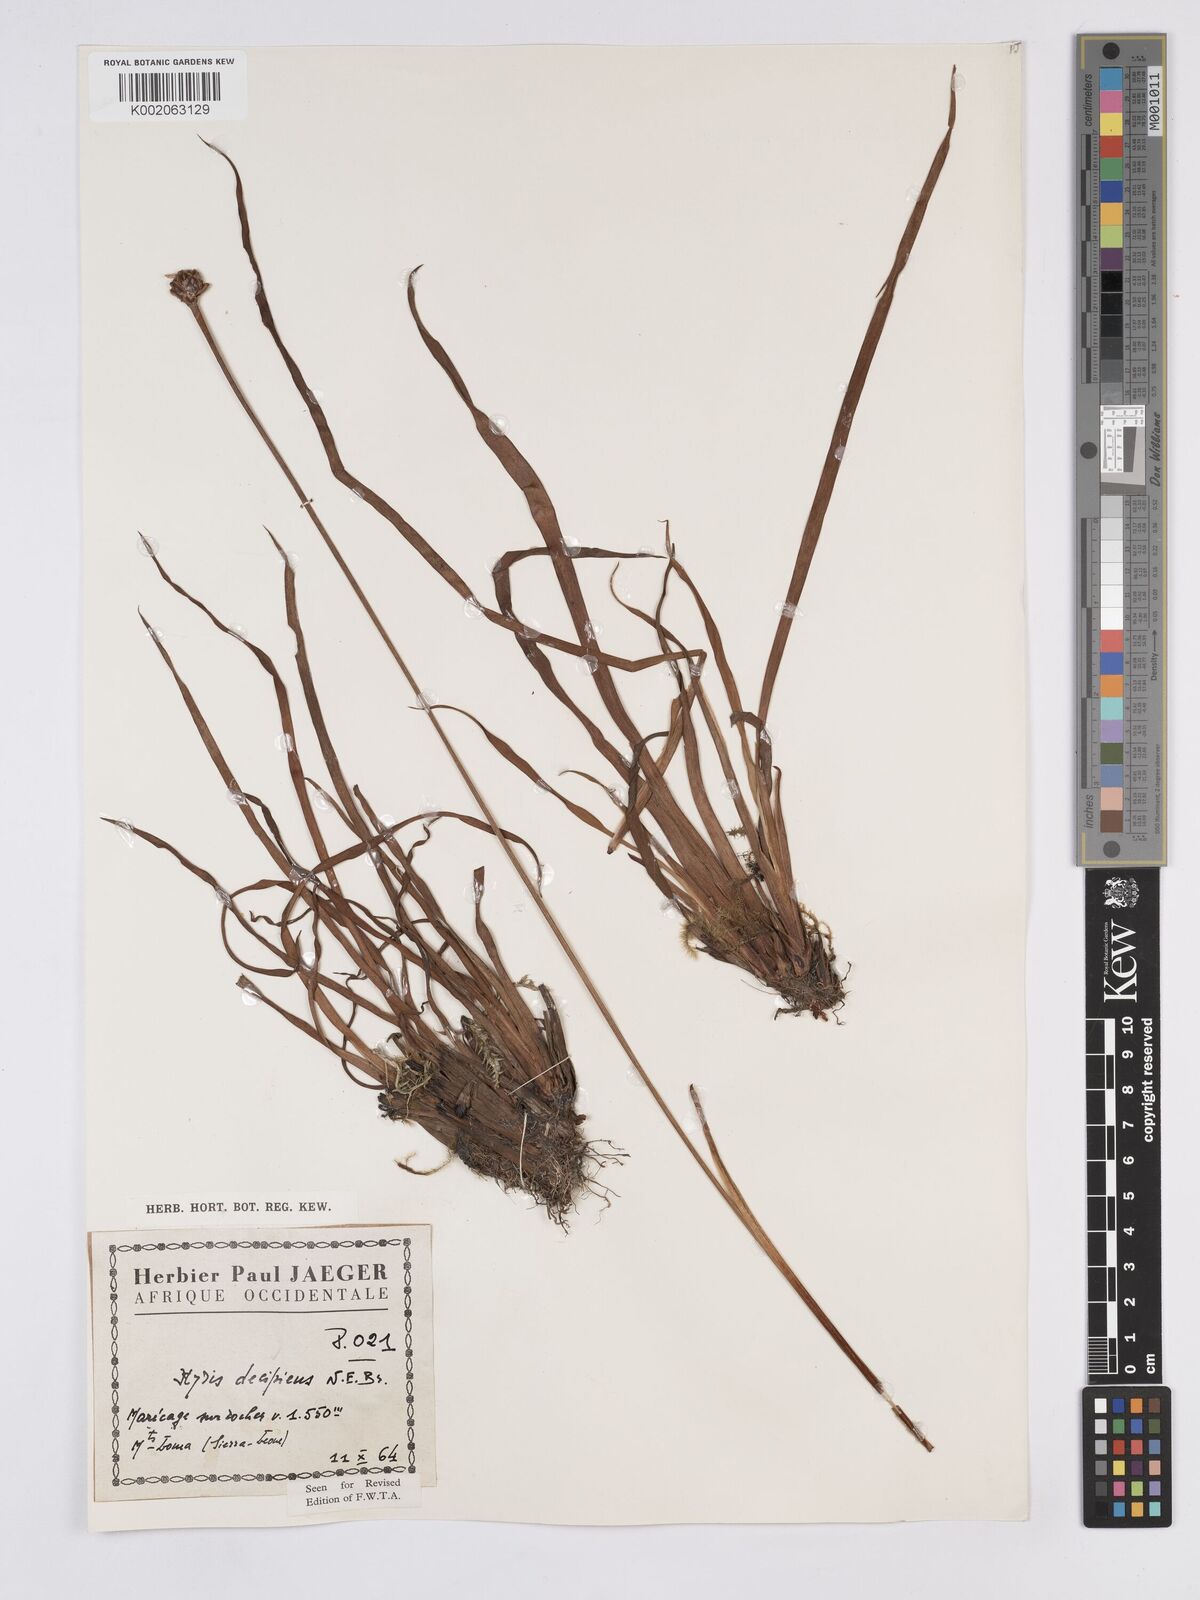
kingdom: Plantae
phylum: Tracheophyta
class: Liliopsida
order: Poales
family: Xyridaceae
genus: Xyris
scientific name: Xyris decipiens
